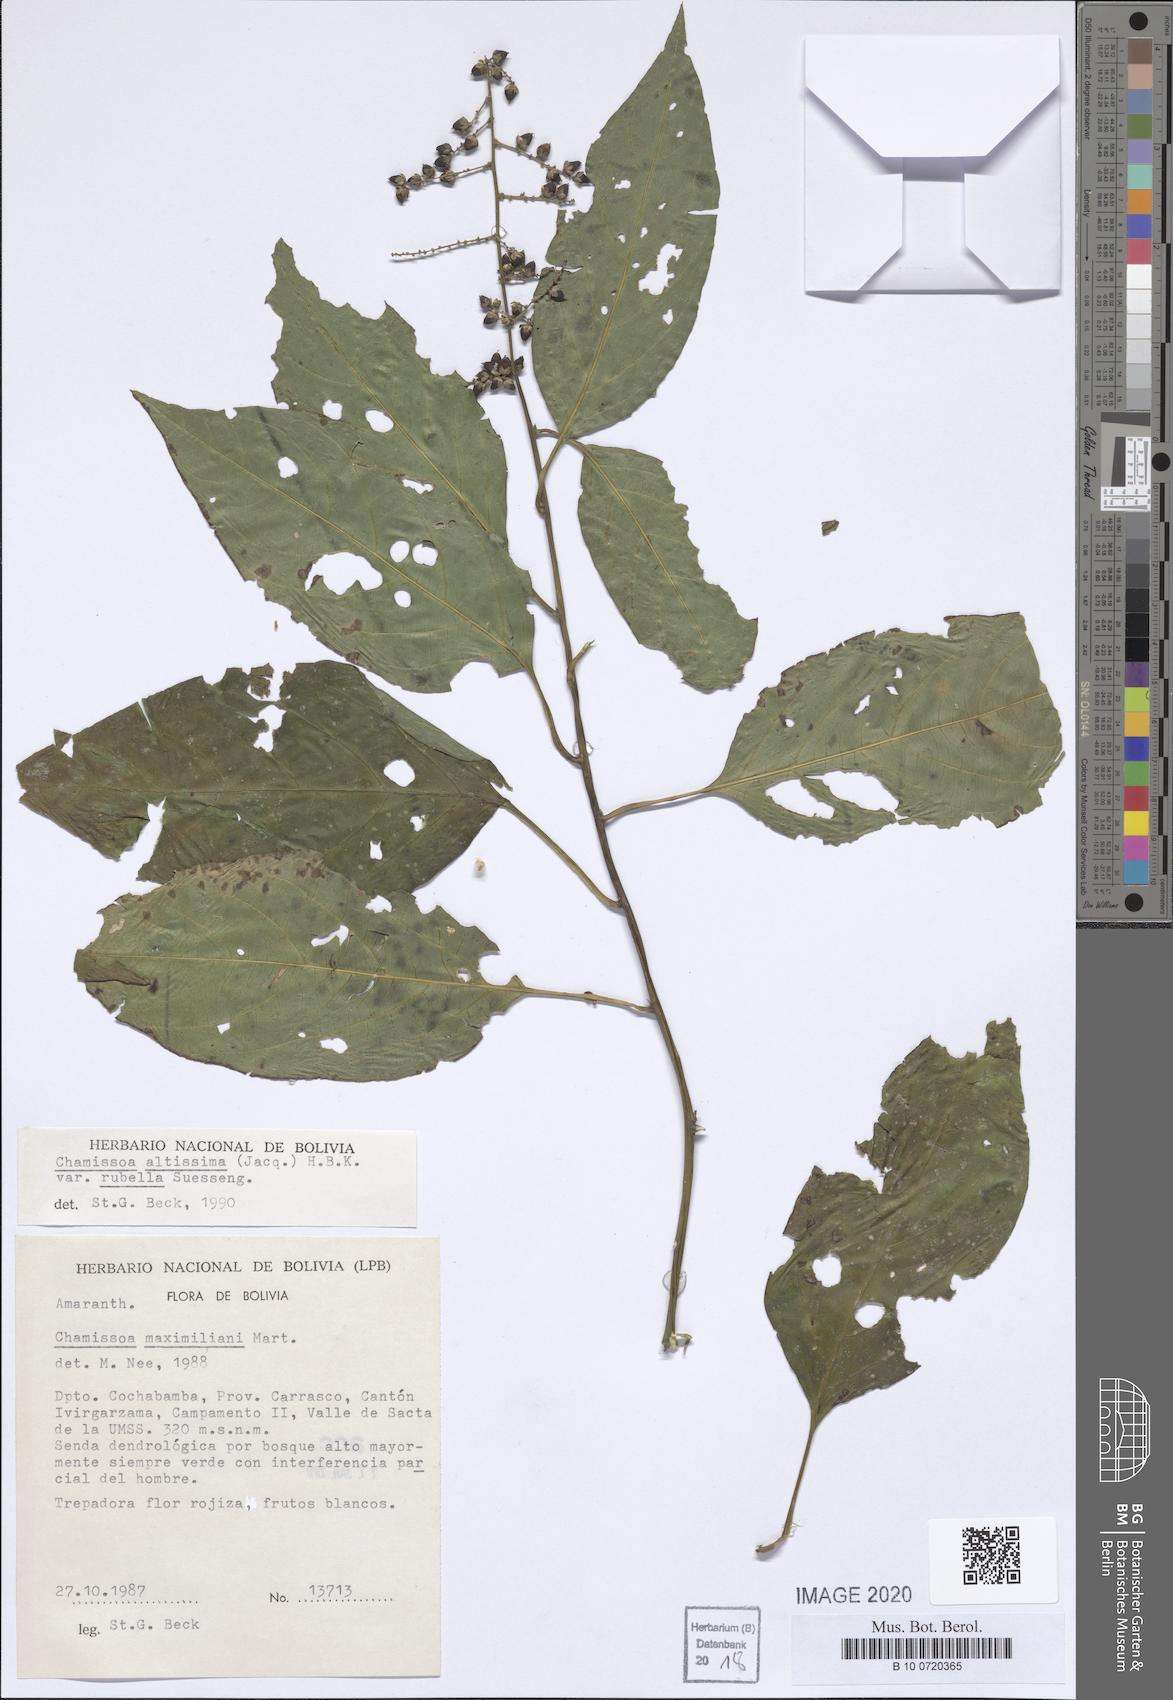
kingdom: Plantae
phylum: Tracheophyta
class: Magnoliopsida
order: Caryophyllales
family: Amaranthaceae
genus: Chamissoa
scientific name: Chamissoa altissima
